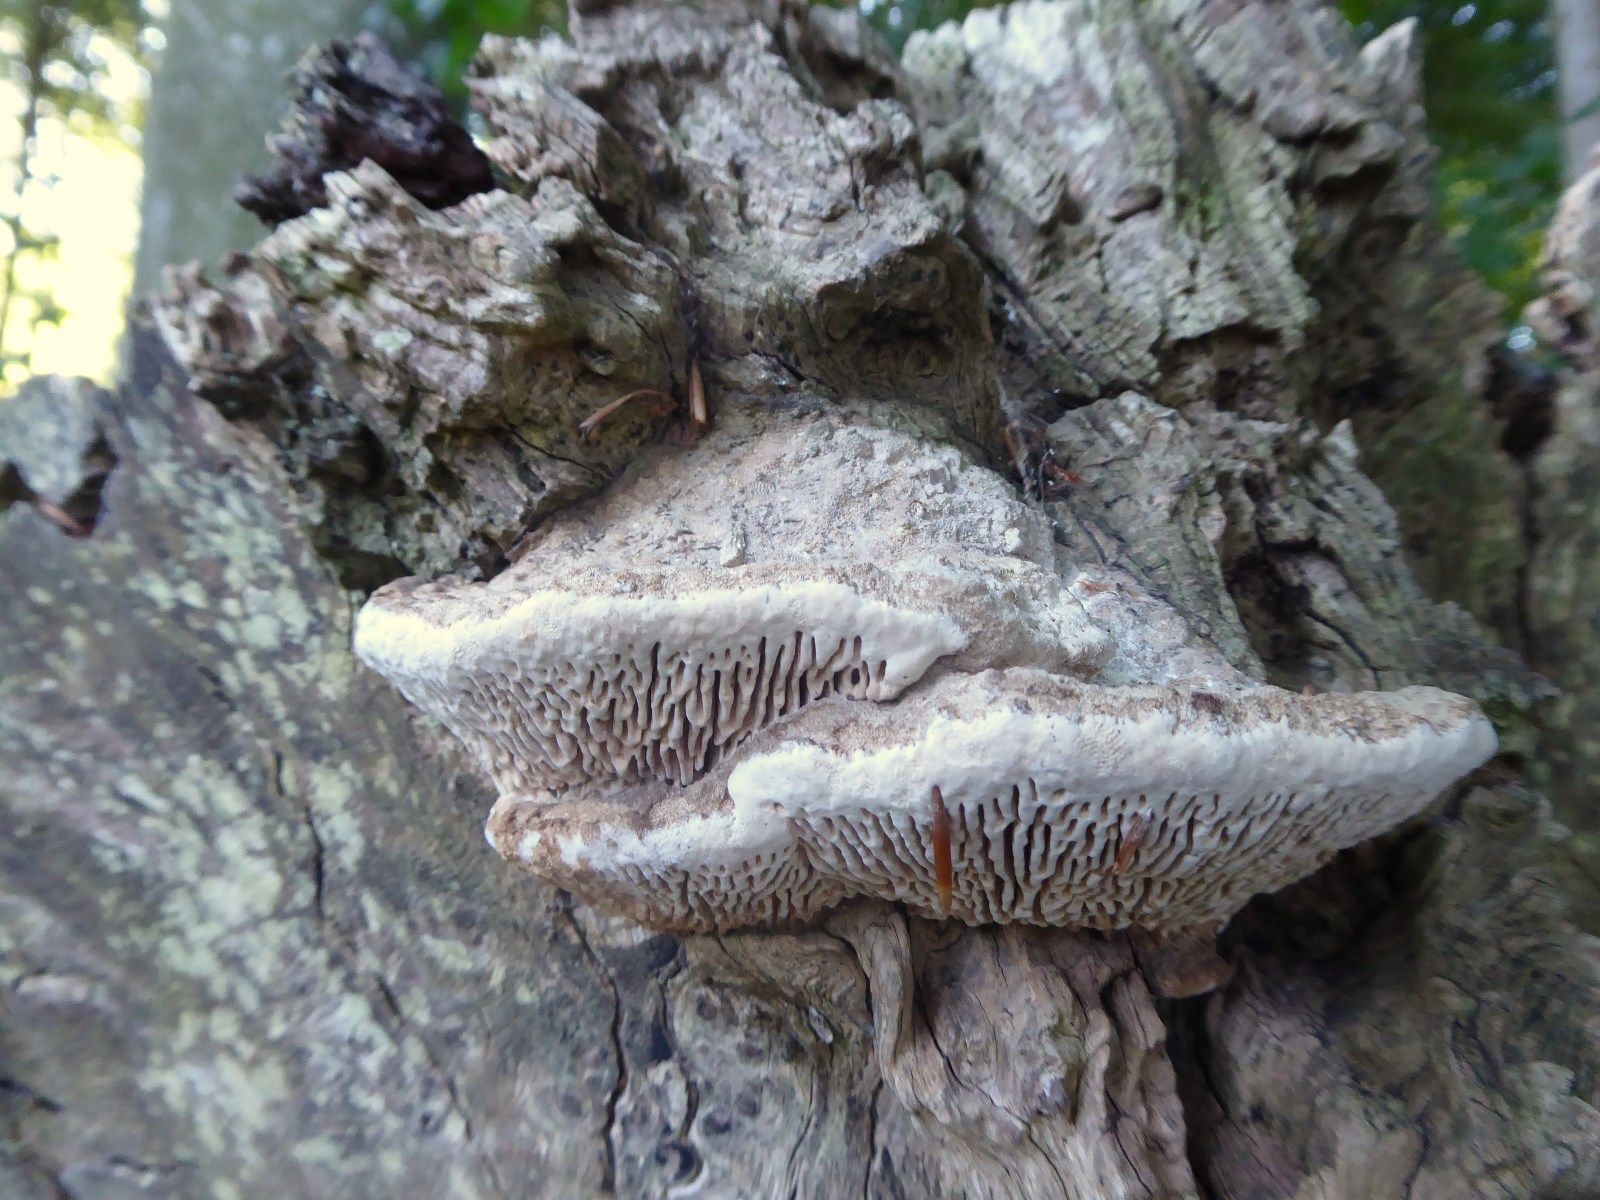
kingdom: Fungi
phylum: Basidiomycota
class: Agaricomycetes
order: Polyporales
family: Fomitopsidaceae
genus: Daedalea
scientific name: Daedalea quercina
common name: ege-labyrintsvamp
